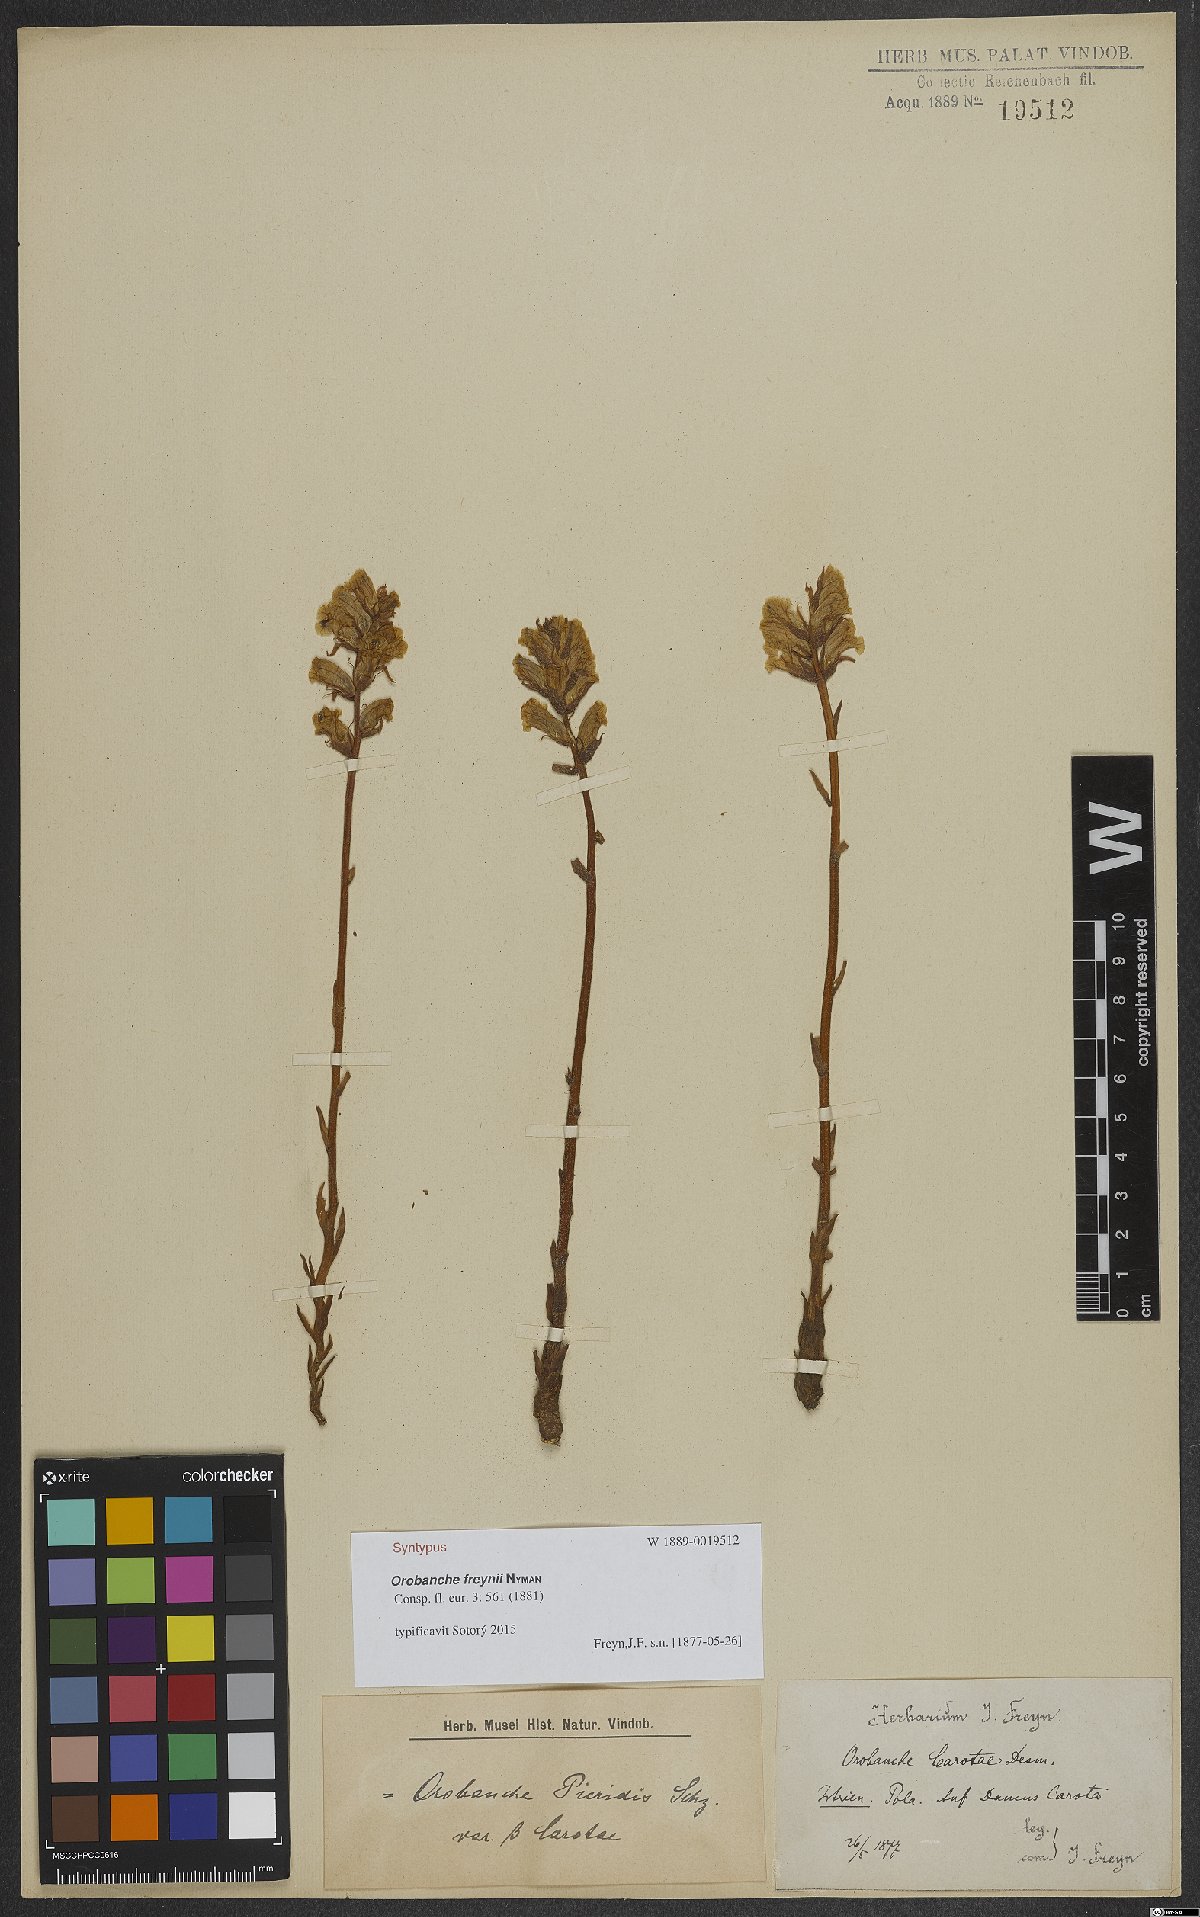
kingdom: Plantae
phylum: Tracheophyta
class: Magnoliopsida
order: Lamiales
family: Orobanchaceae
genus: Orobanche
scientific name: Orobanche picridis
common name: Oxtongue broomrape
